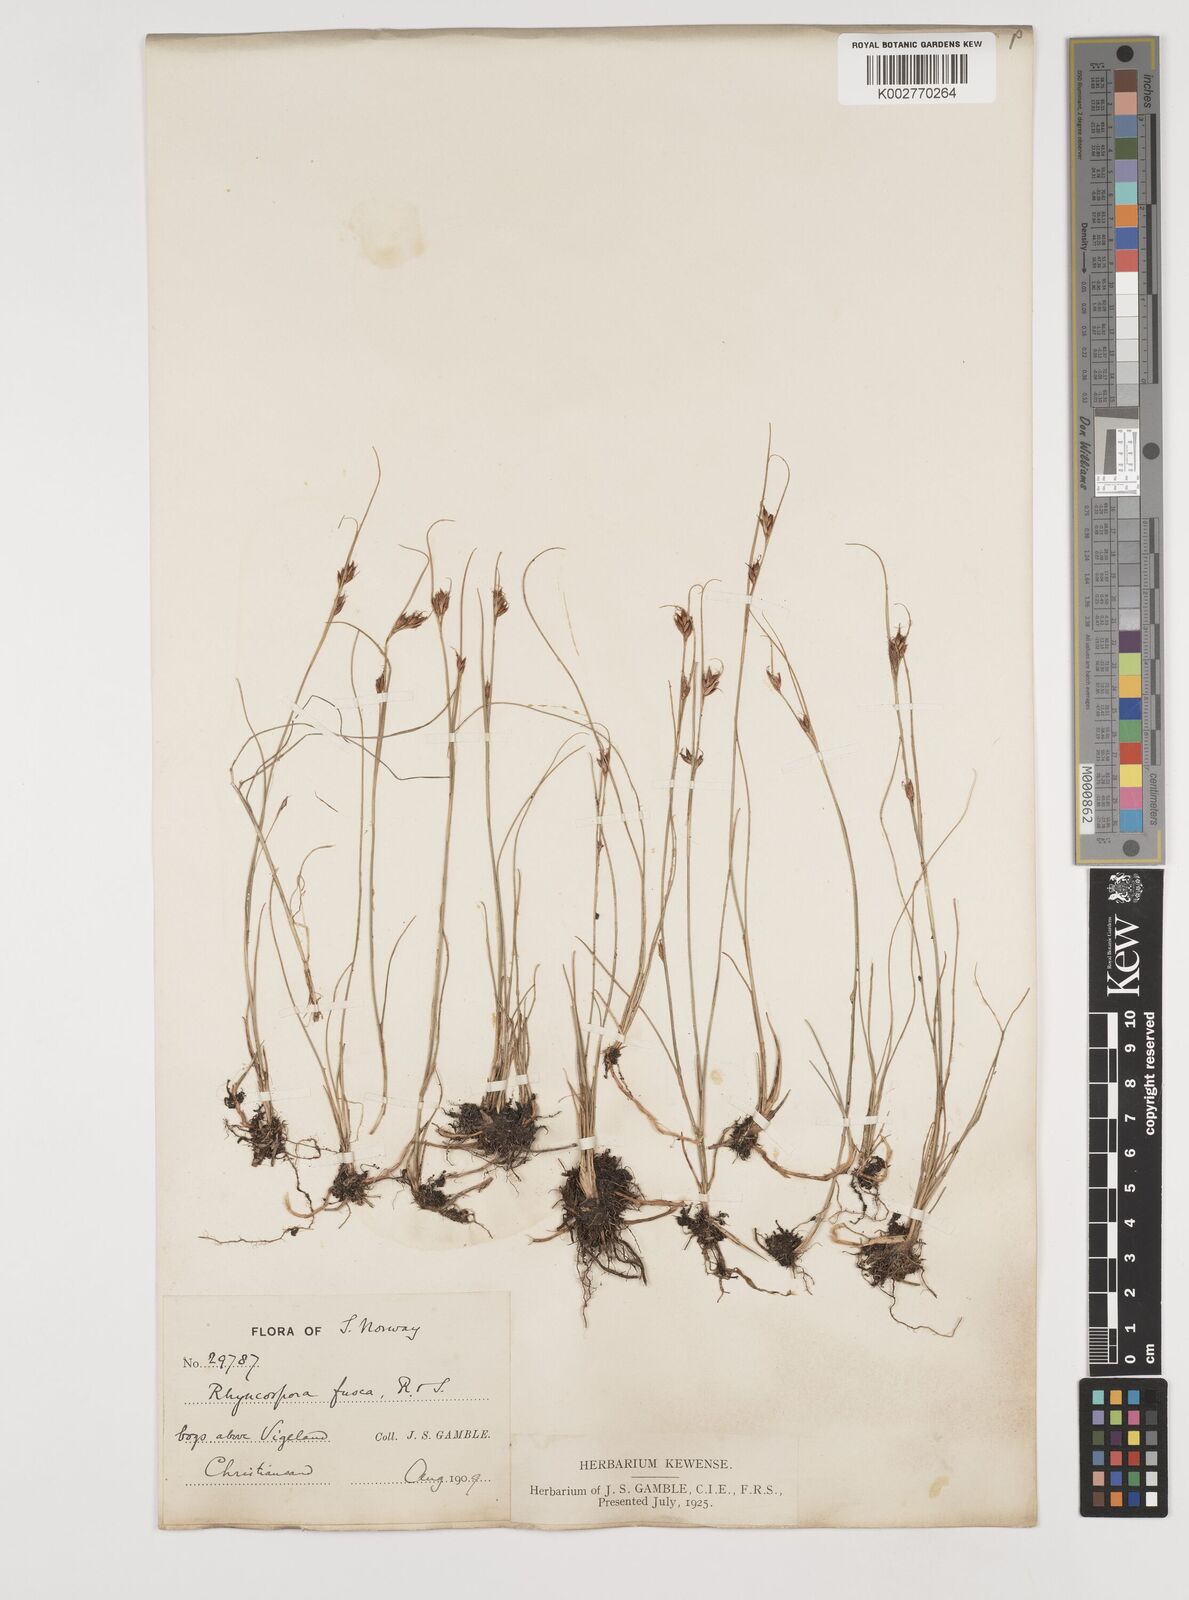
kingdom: Plantae
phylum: Tracheophyta
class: Liliopsida
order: Poales
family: Cyperaceae
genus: Rhynchospora
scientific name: Rhynchospora fusca
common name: Brown beak-sedge
